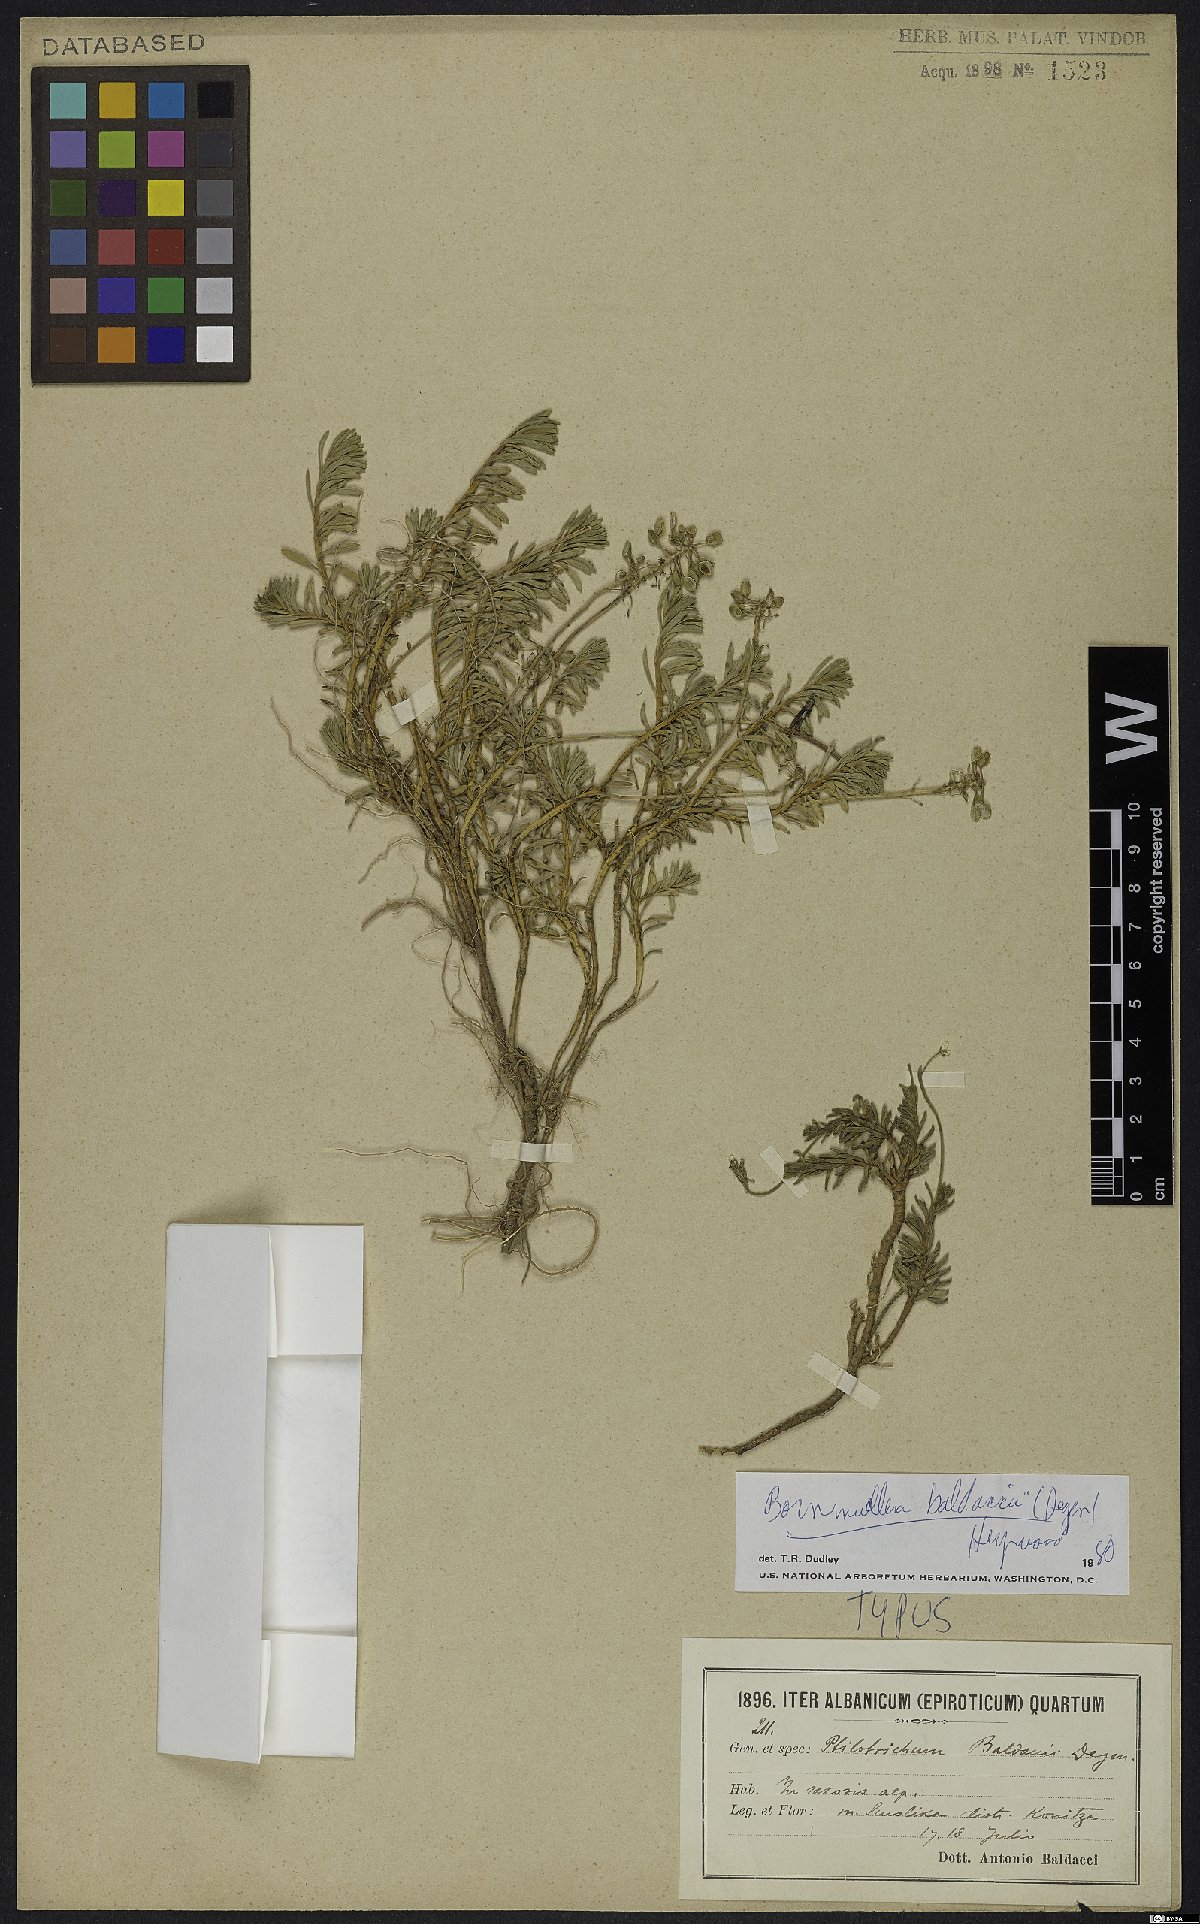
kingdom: Plantae
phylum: Tracheophyta
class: Magnoliopsida
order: Brassicales
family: Brassicaceae
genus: Bornmuellera
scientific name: Bornmuellera baldaccii
